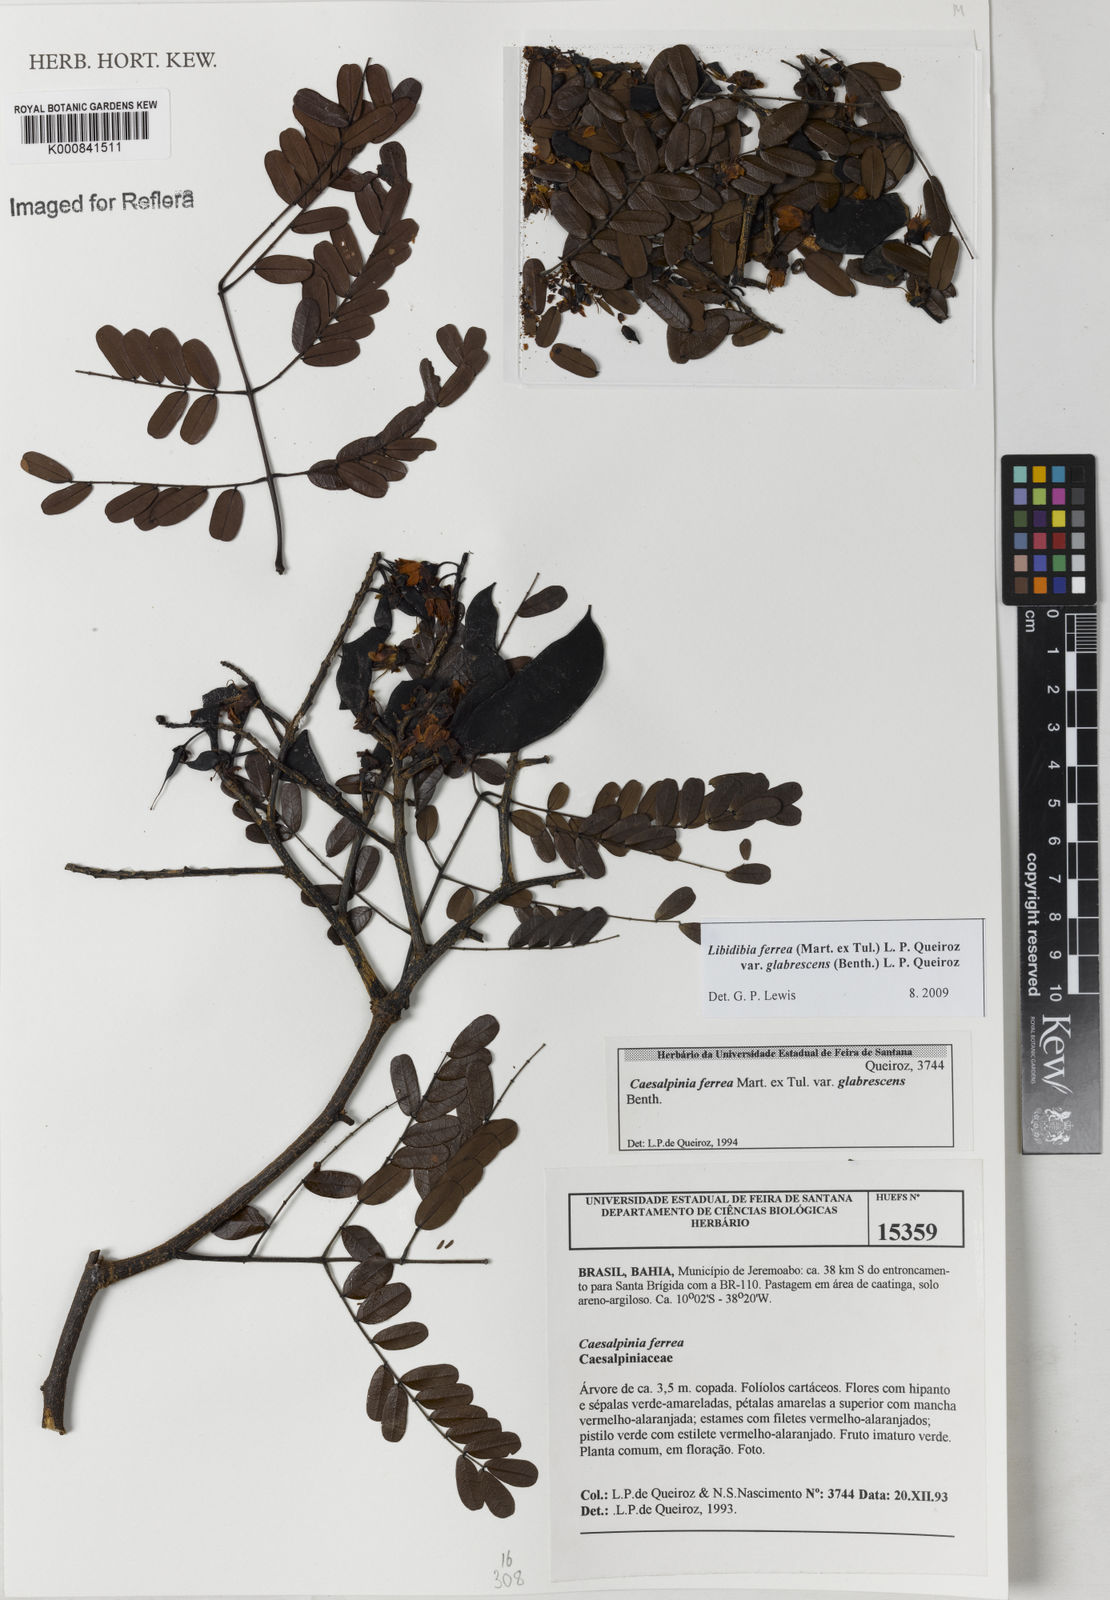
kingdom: Plantae
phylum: Tracheophyta
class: Magnoliopsida
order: Fabales
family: Fabaceae
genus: Libidibia
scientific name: Libidibia ferrea
